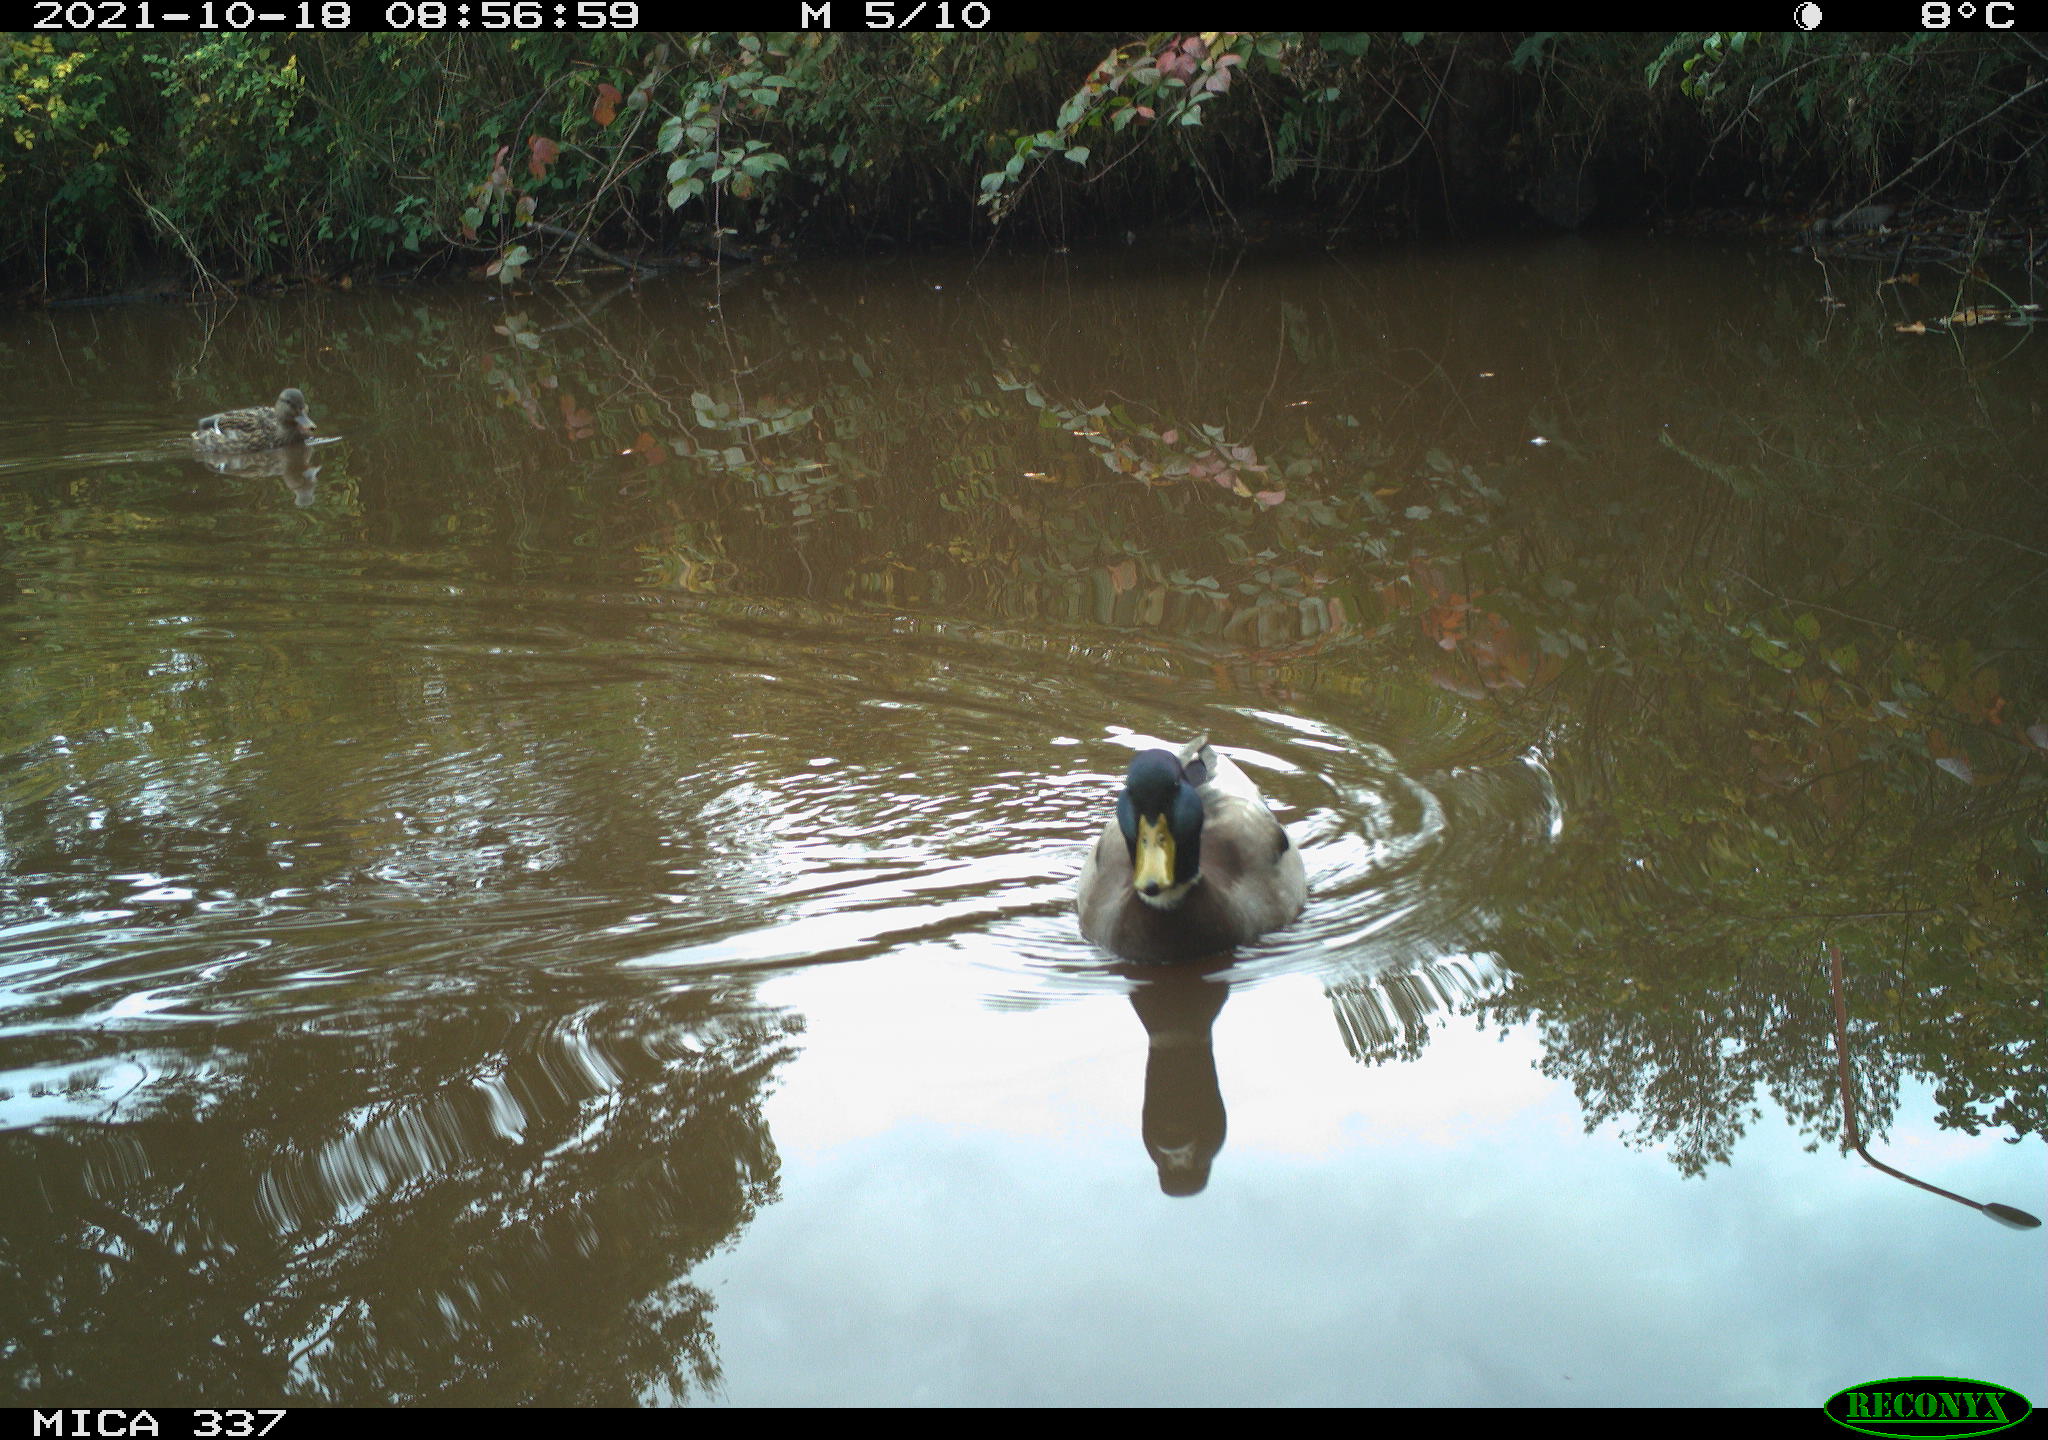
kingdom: Animalia
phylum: Chordata
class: Aves
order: Anseriformes
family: Anatidae
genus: Anas
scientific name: Anas platyrhynchos
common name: Mallard
